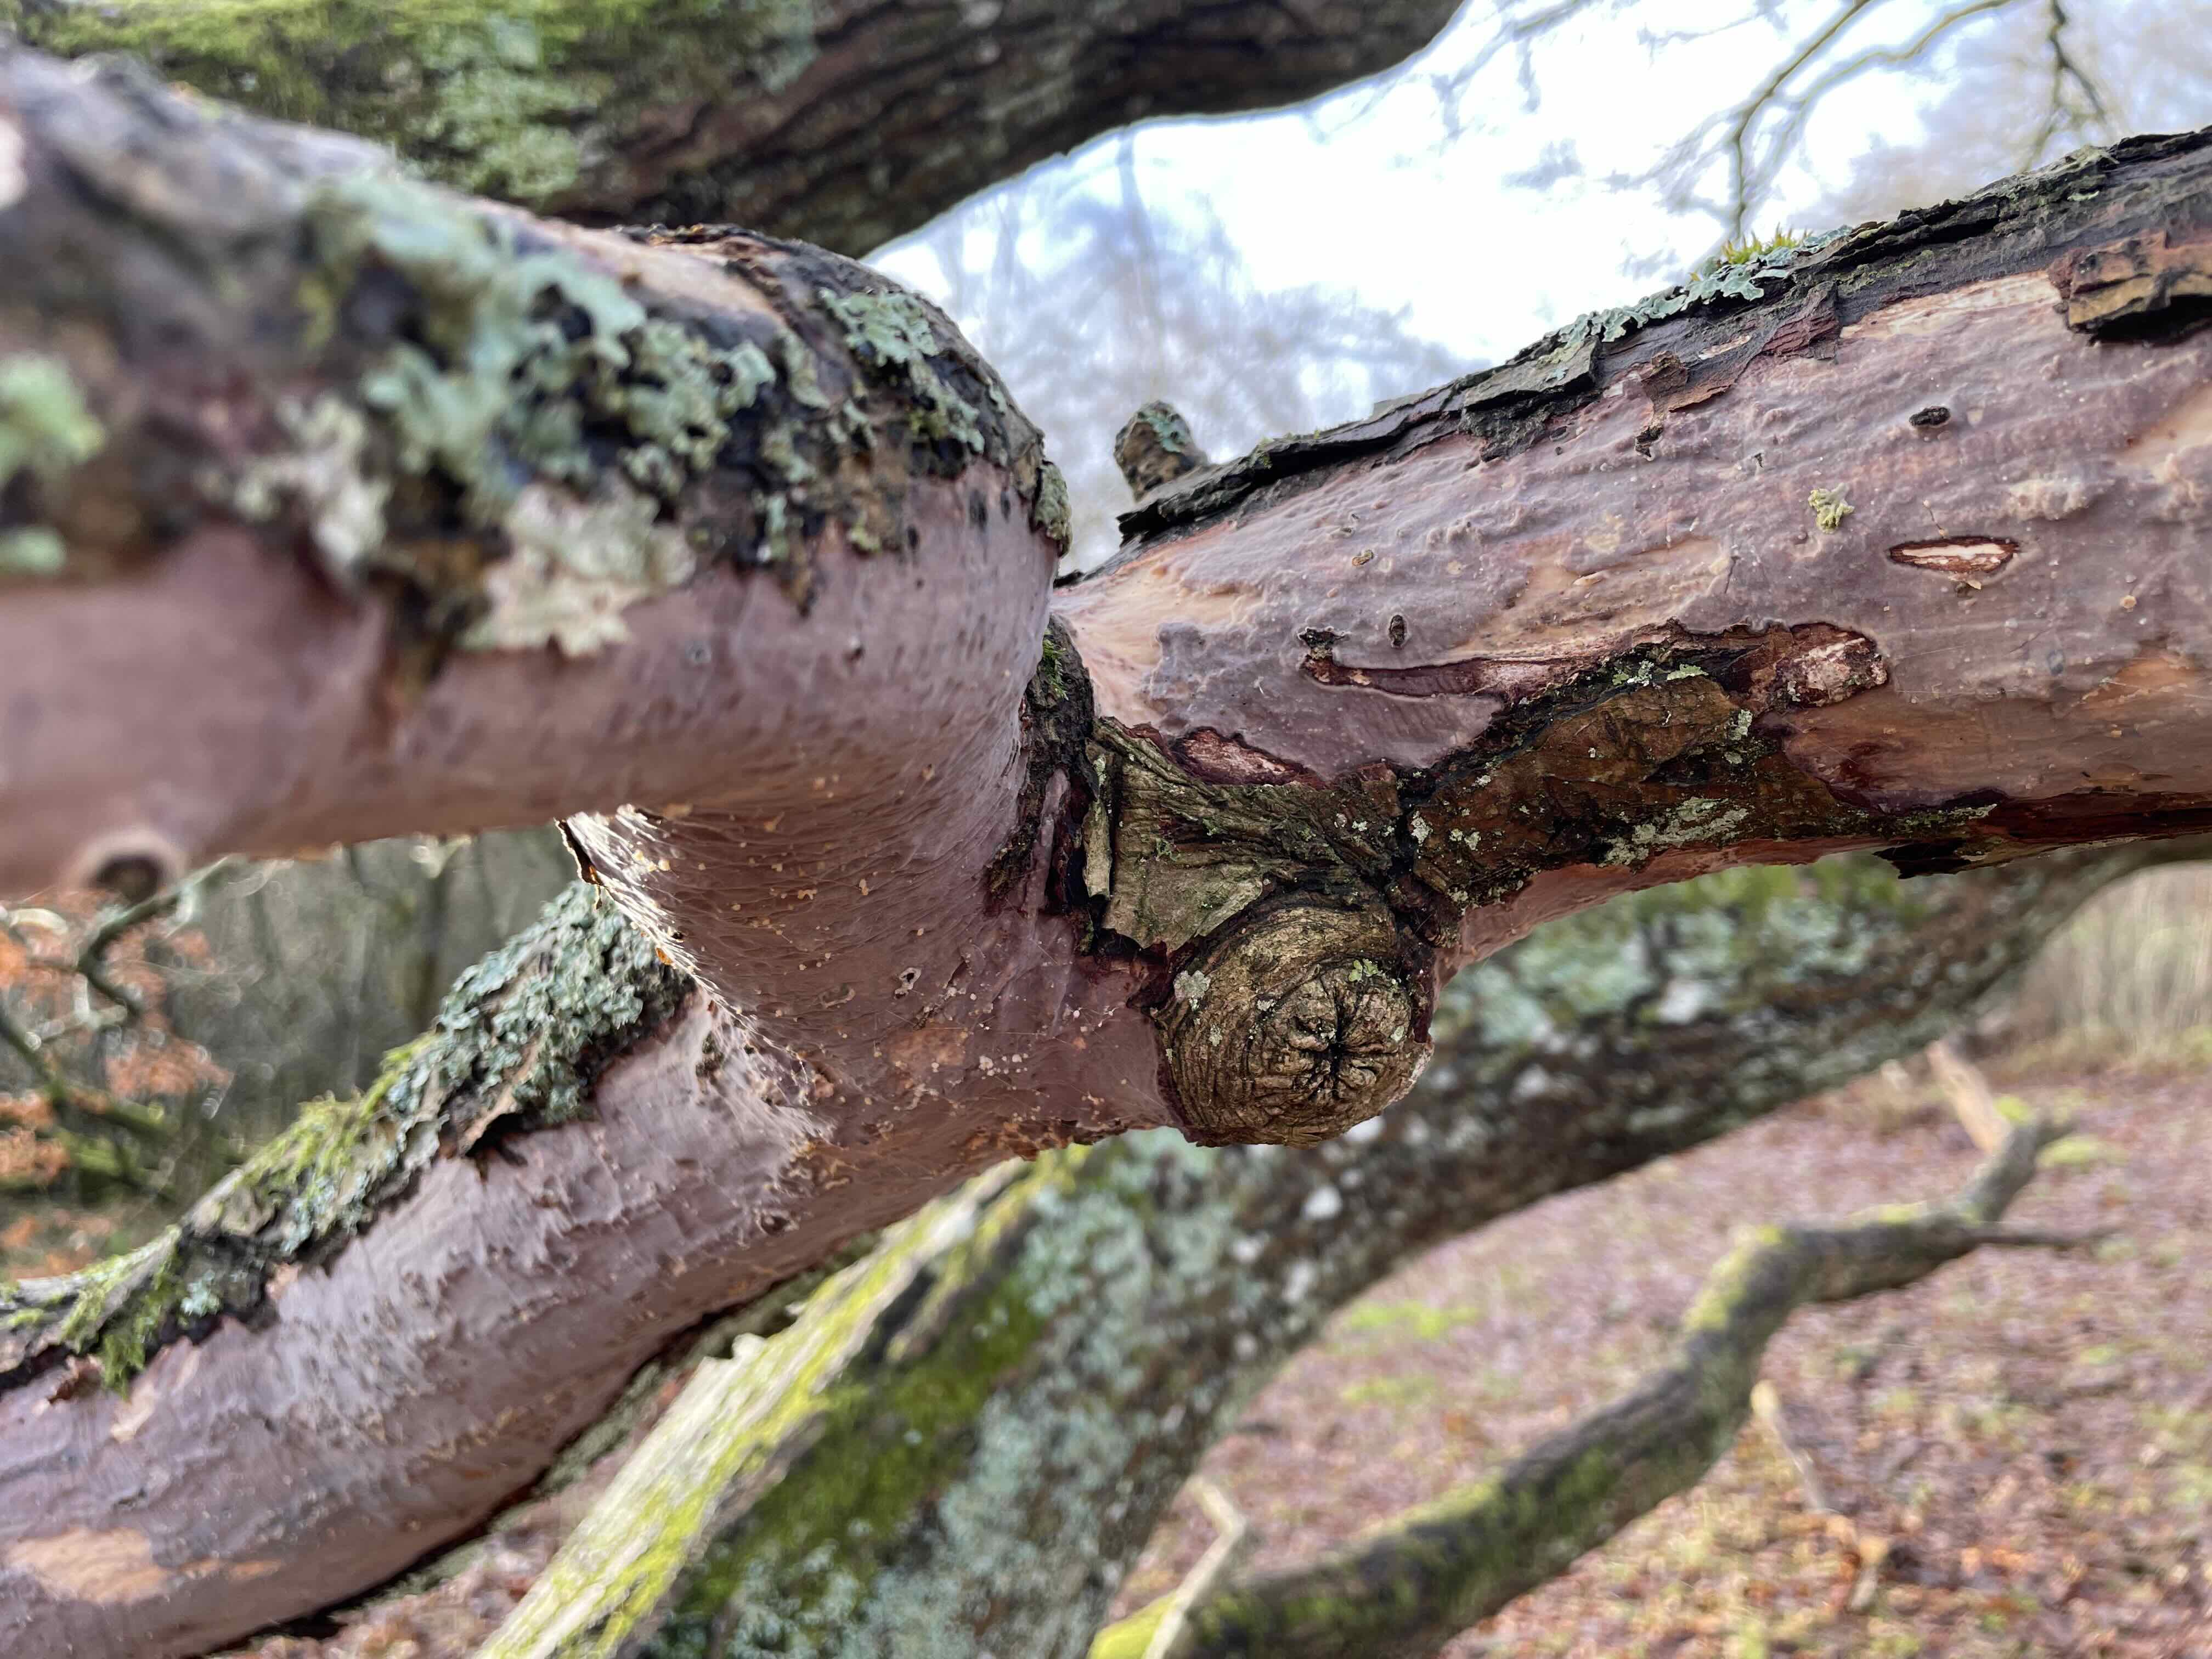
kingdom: Fungi
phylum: Basidiomycota
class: Agaricomycetes
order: Russulales
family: Peniophoraceae
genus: Peniophora
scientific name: Peniophora quercina
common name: ege-voksskind
